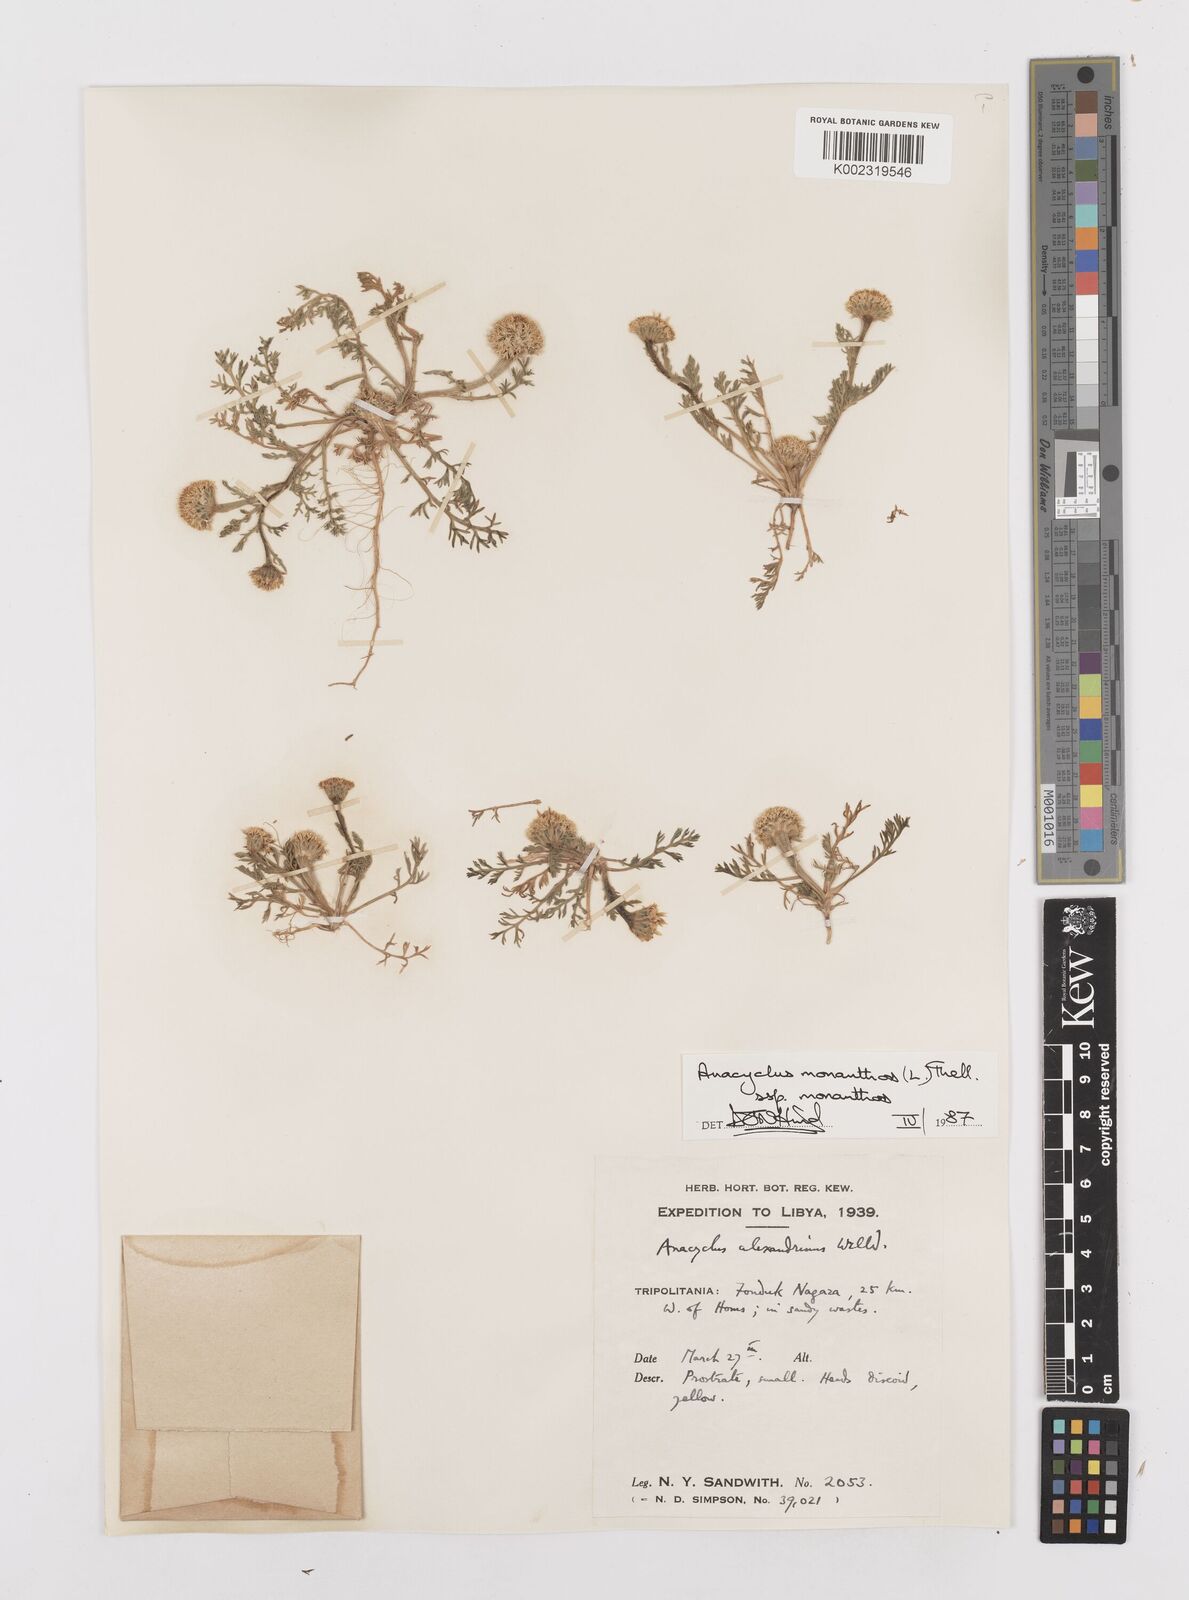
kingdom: Plantae
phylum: Tracheophyta
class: Magnoliopsida
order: Asterales
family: Asteraceae
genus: Anacyclus
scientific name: Anacyclus monanthos
